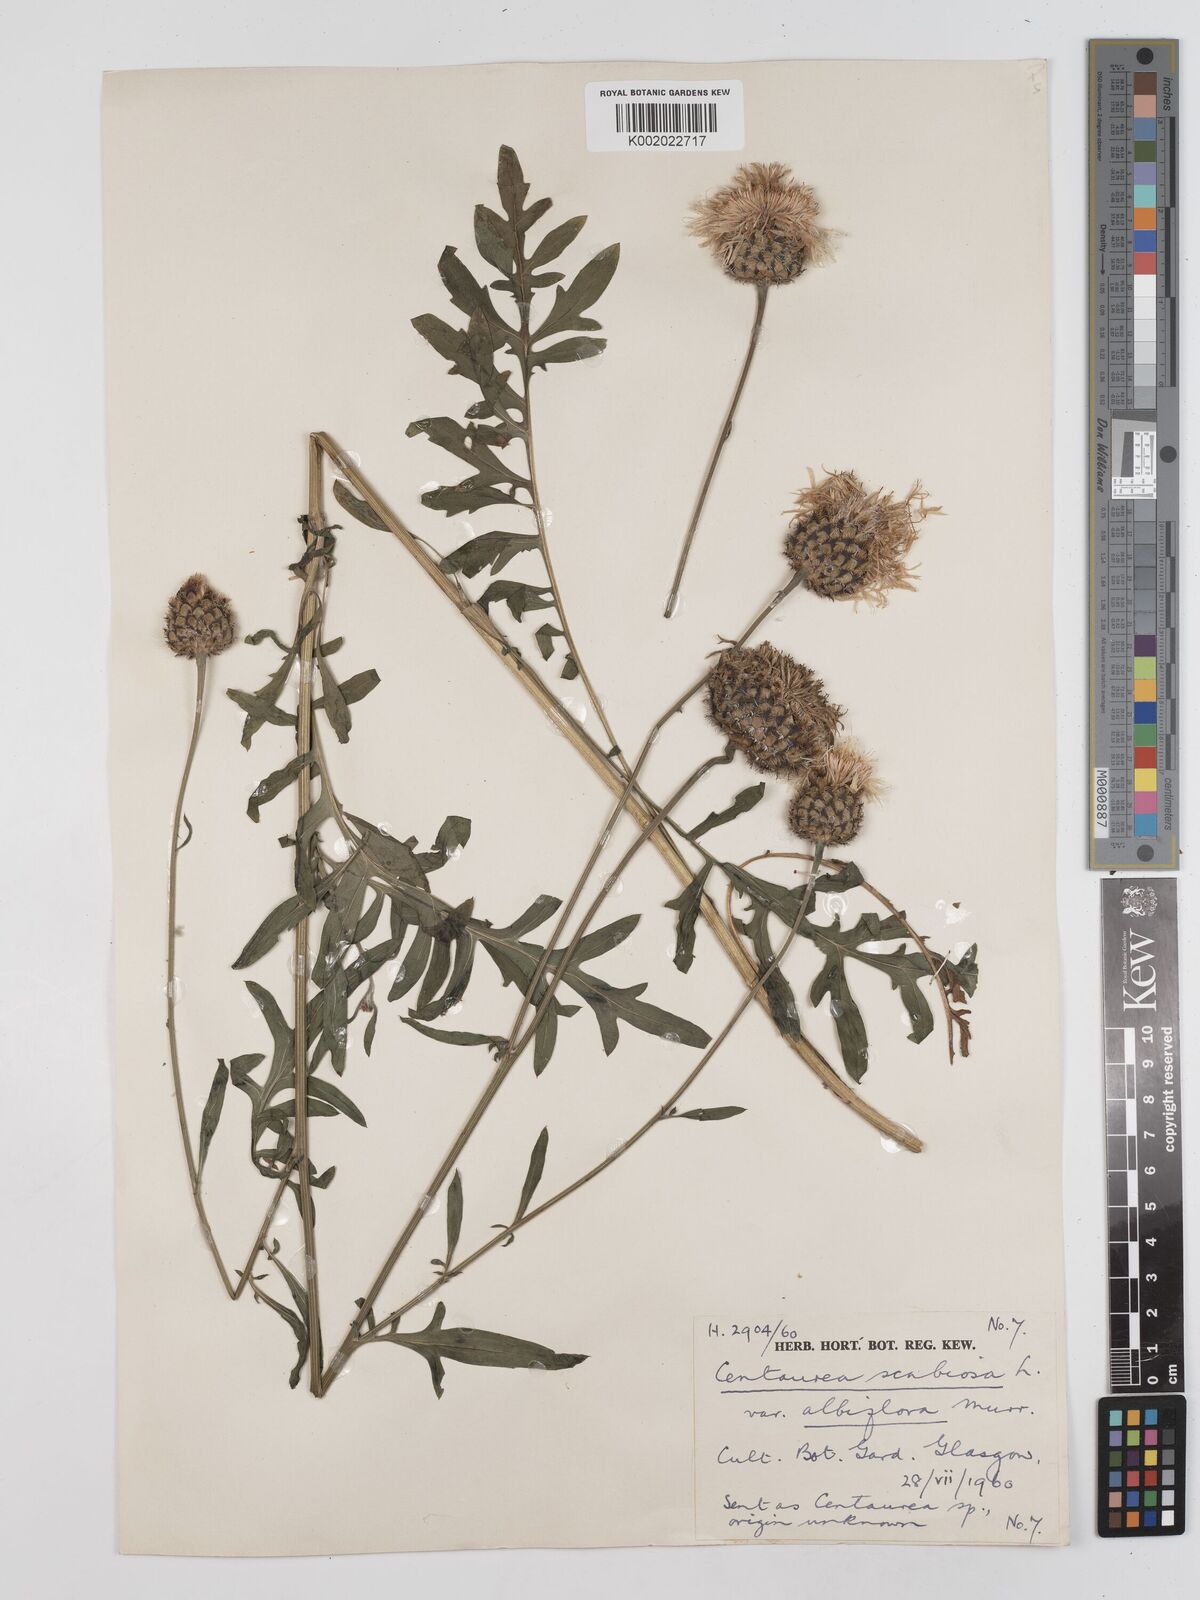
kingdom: Plantae
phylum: Tracheophyta
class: Magnoliopsida
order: Asterales
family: Asteraceae
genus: Centaurea
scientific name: Centaurea scabiosa
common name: Greater knapweed
